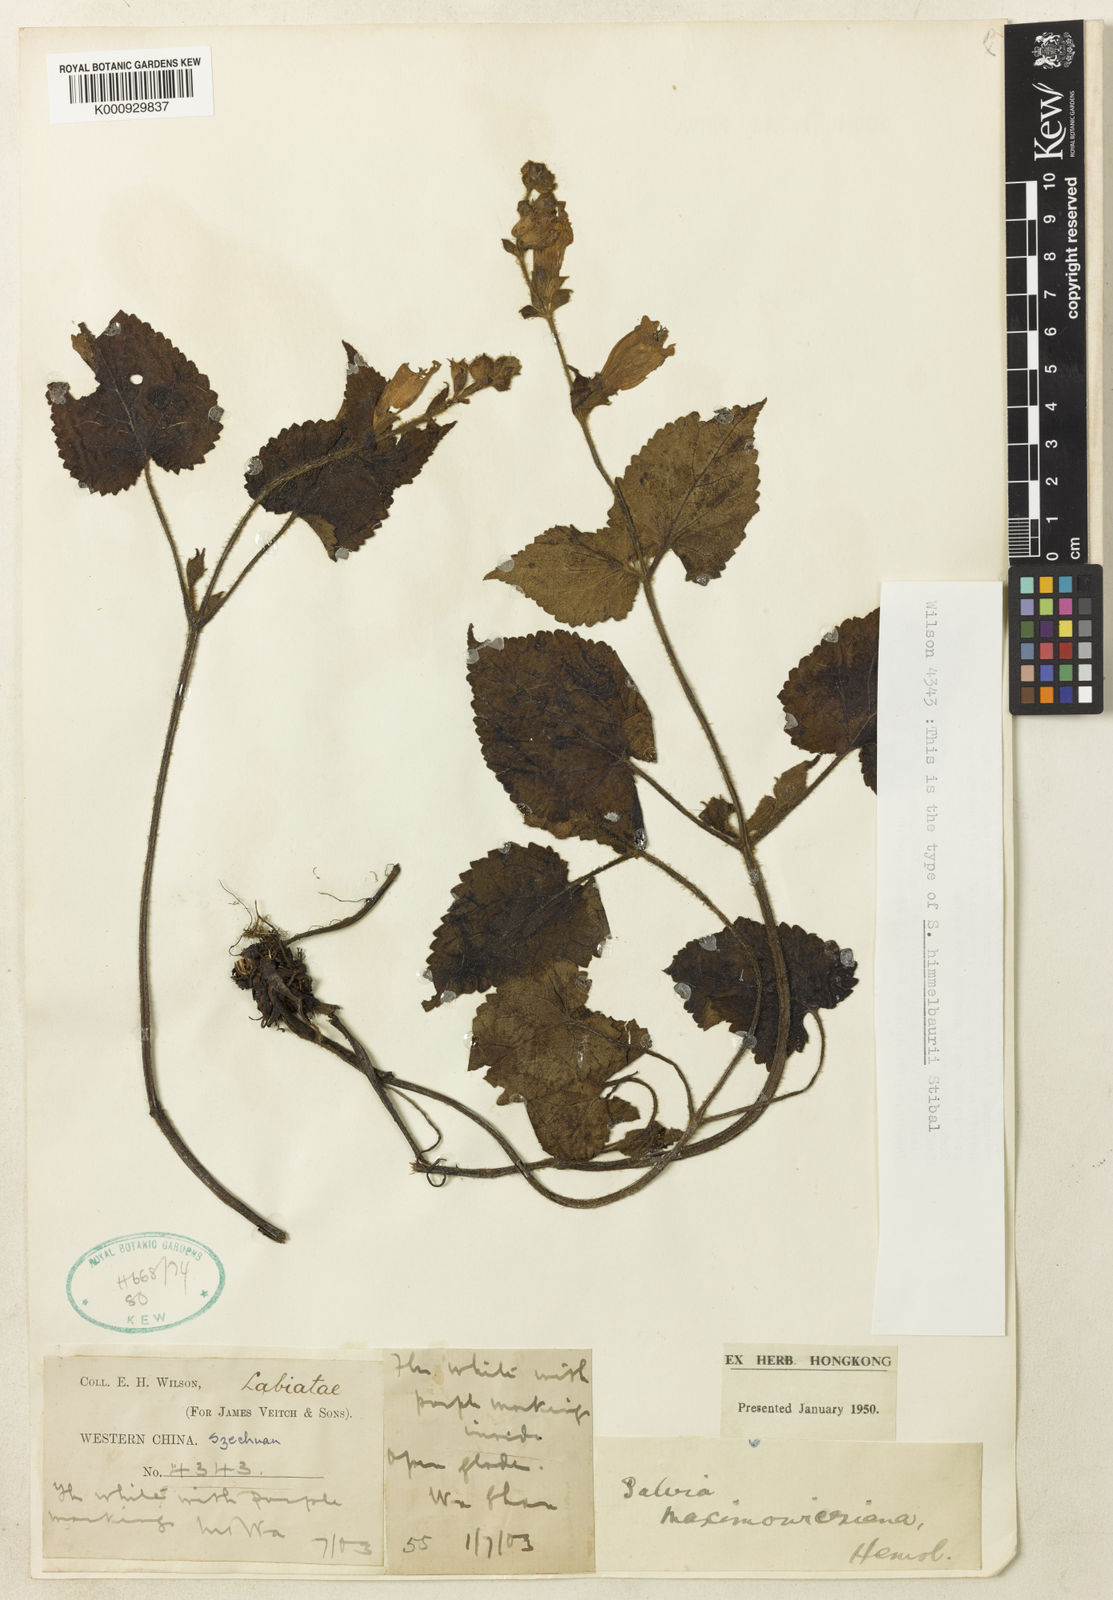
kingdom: Plantae
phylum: Tracheophyta
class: Magnoliopsida
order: Lamiales
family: Lamiaceae
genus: Salvia
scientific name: Salvia
